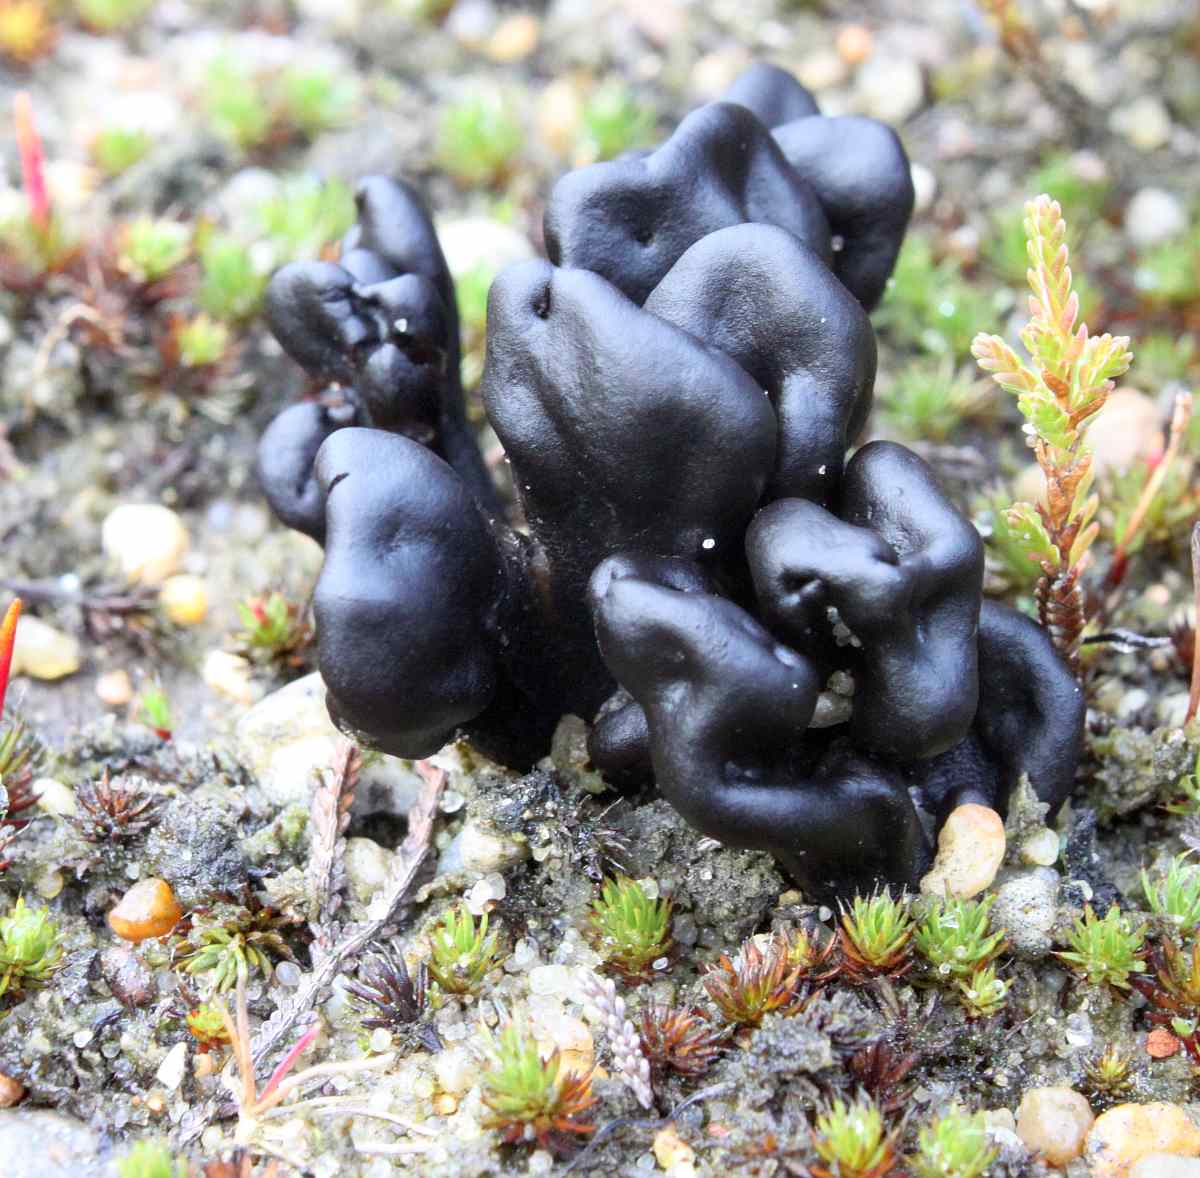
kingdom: Fungi
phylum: Ascomycota
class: Geoglossomycetes
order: Geoglossales
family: Geoglossaceae
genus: Sabuloglossum
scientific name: Sabuloglossum arenarium
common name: klit-jordtunge
